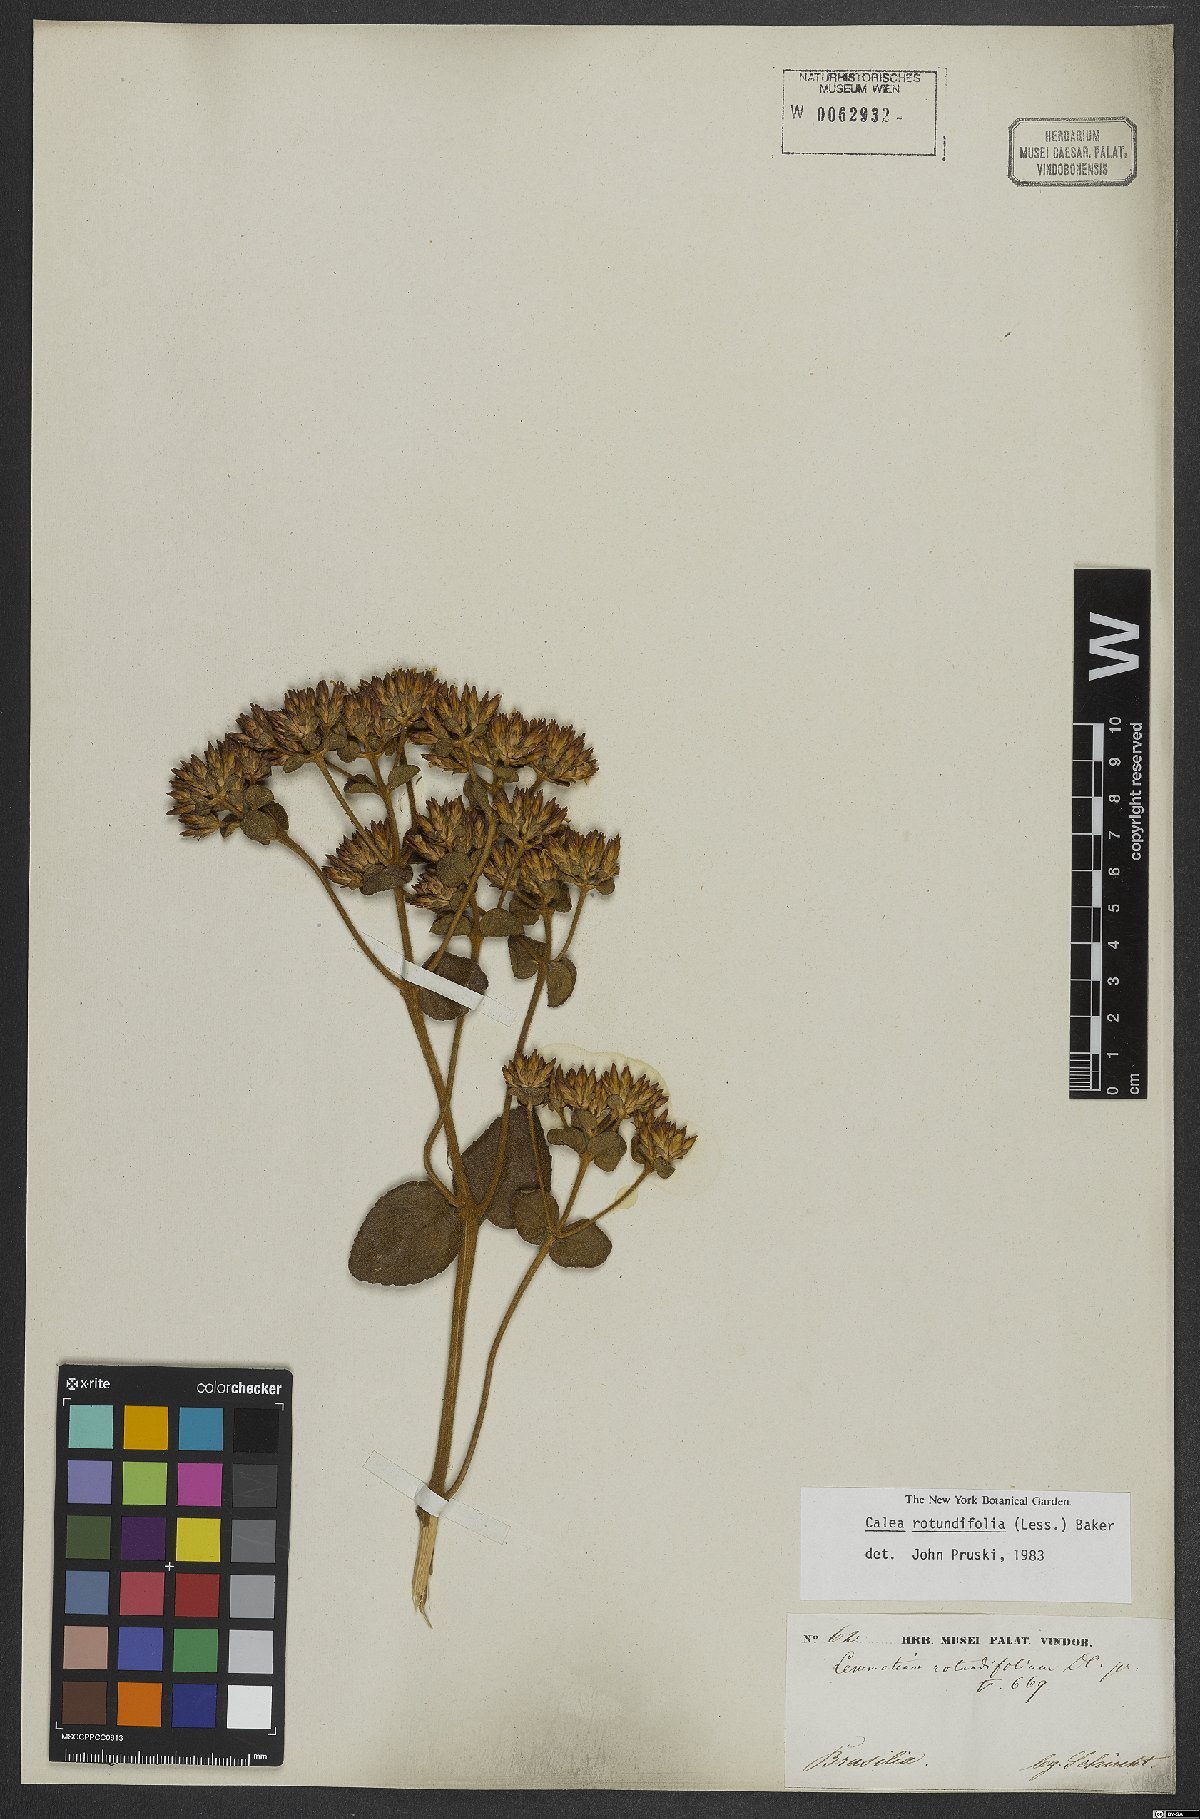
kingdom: Plantae
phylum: Tracheophyta
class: Magnoliopsida
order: Asterales
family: Asteraceae
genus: Calea
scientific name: Calea rotundifolia
